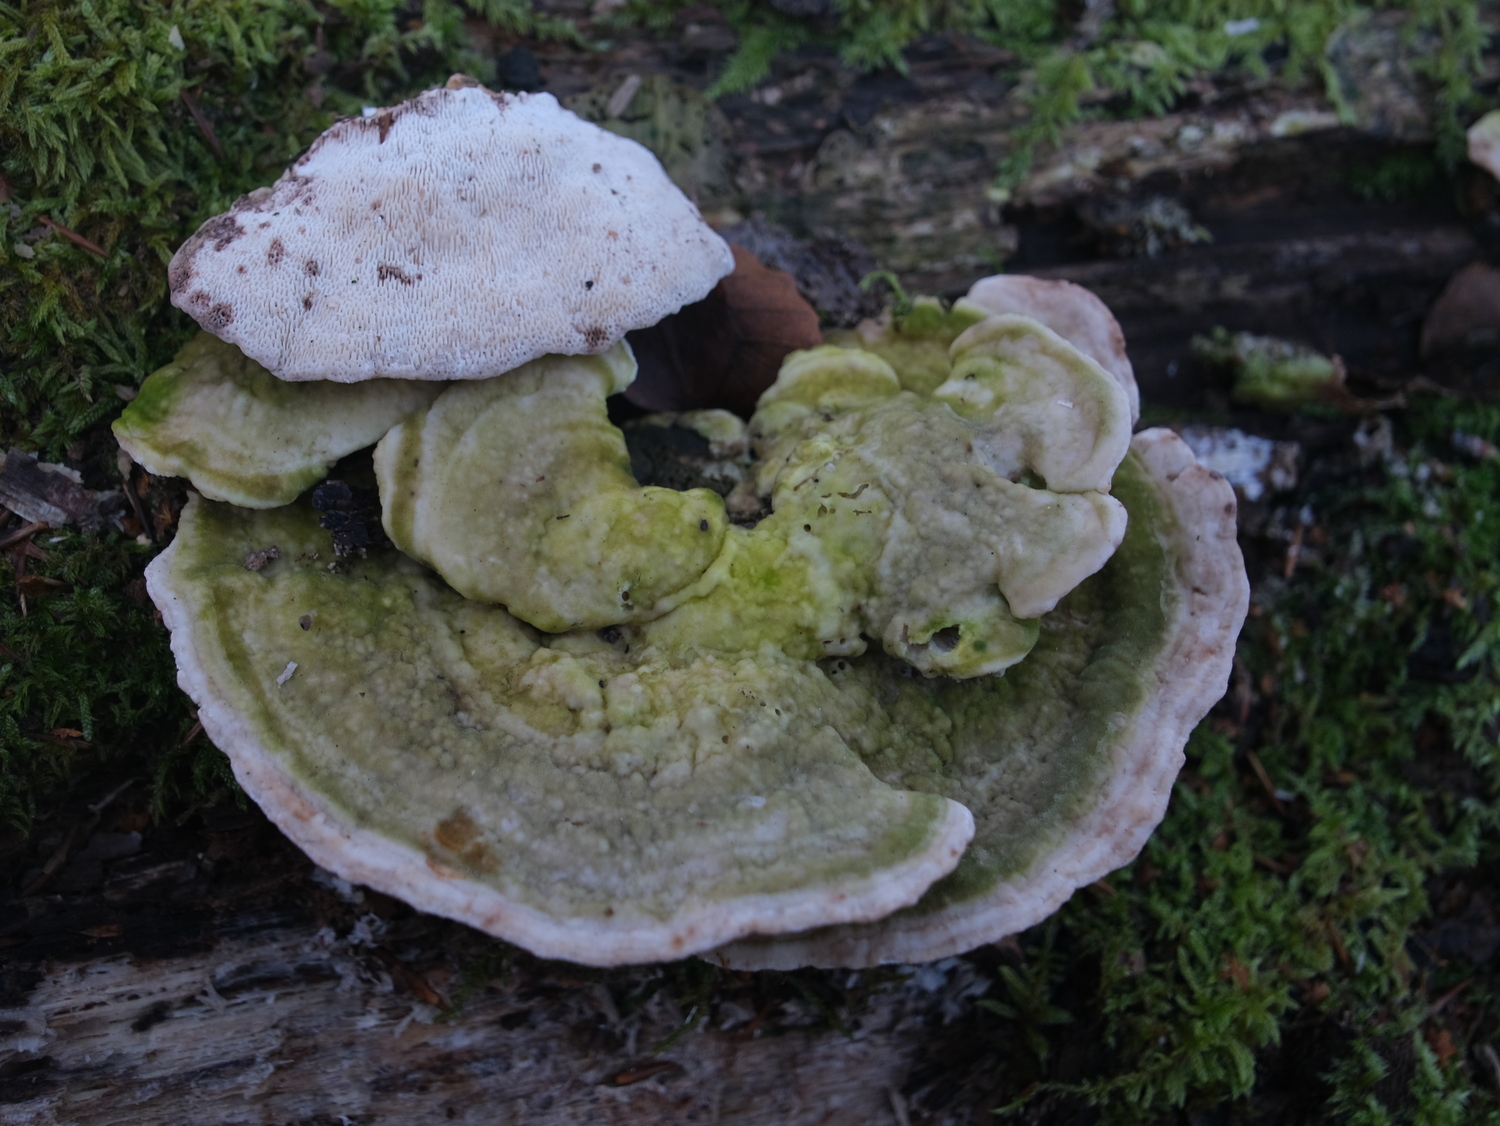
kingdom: Fungi
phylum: Basidiomycota
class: Agaricomycetes
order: Polyporales
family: Polyporaceae
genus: Trametes
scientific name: Trametes gibbosa
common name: puklet læderporesvamp
